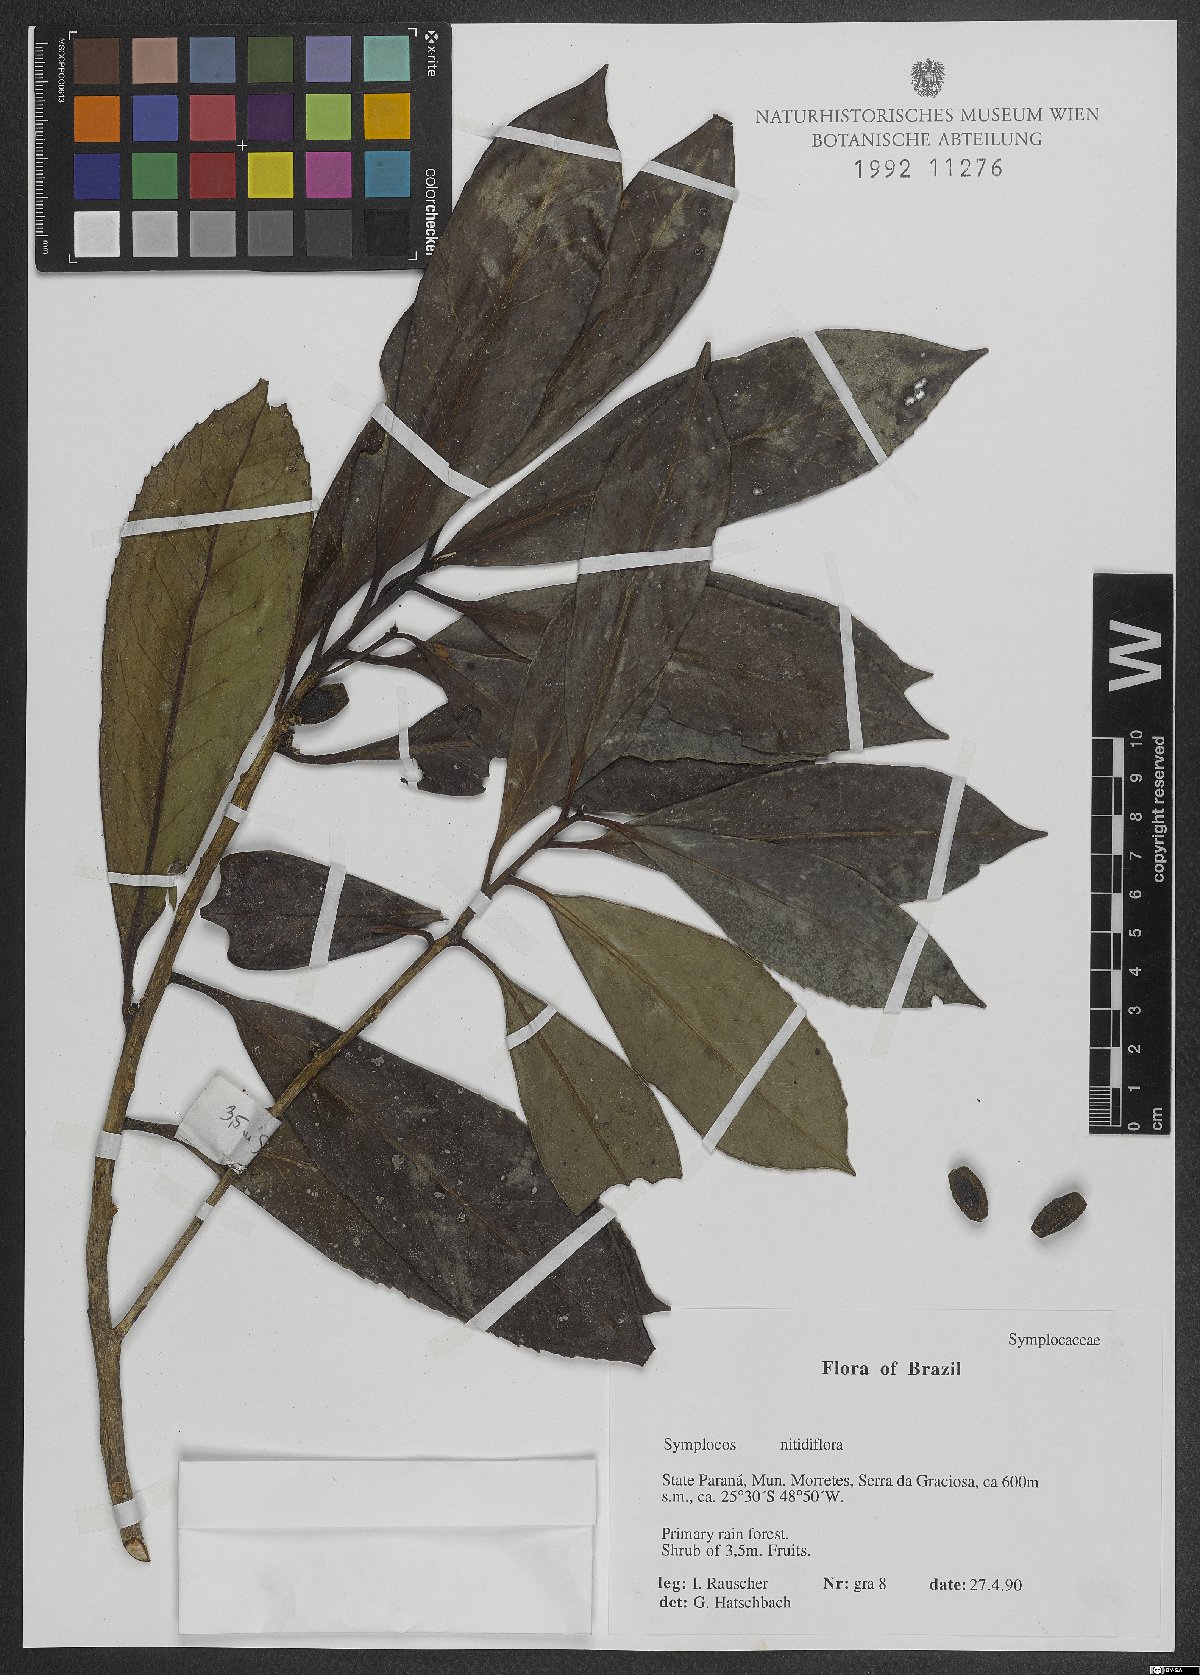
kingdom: Plantae
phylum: Tracheophyta
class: Magnoliopsida
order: Ericales
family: Symplocaceae
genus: Symplocos
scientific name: Symplocos nitidiflora
